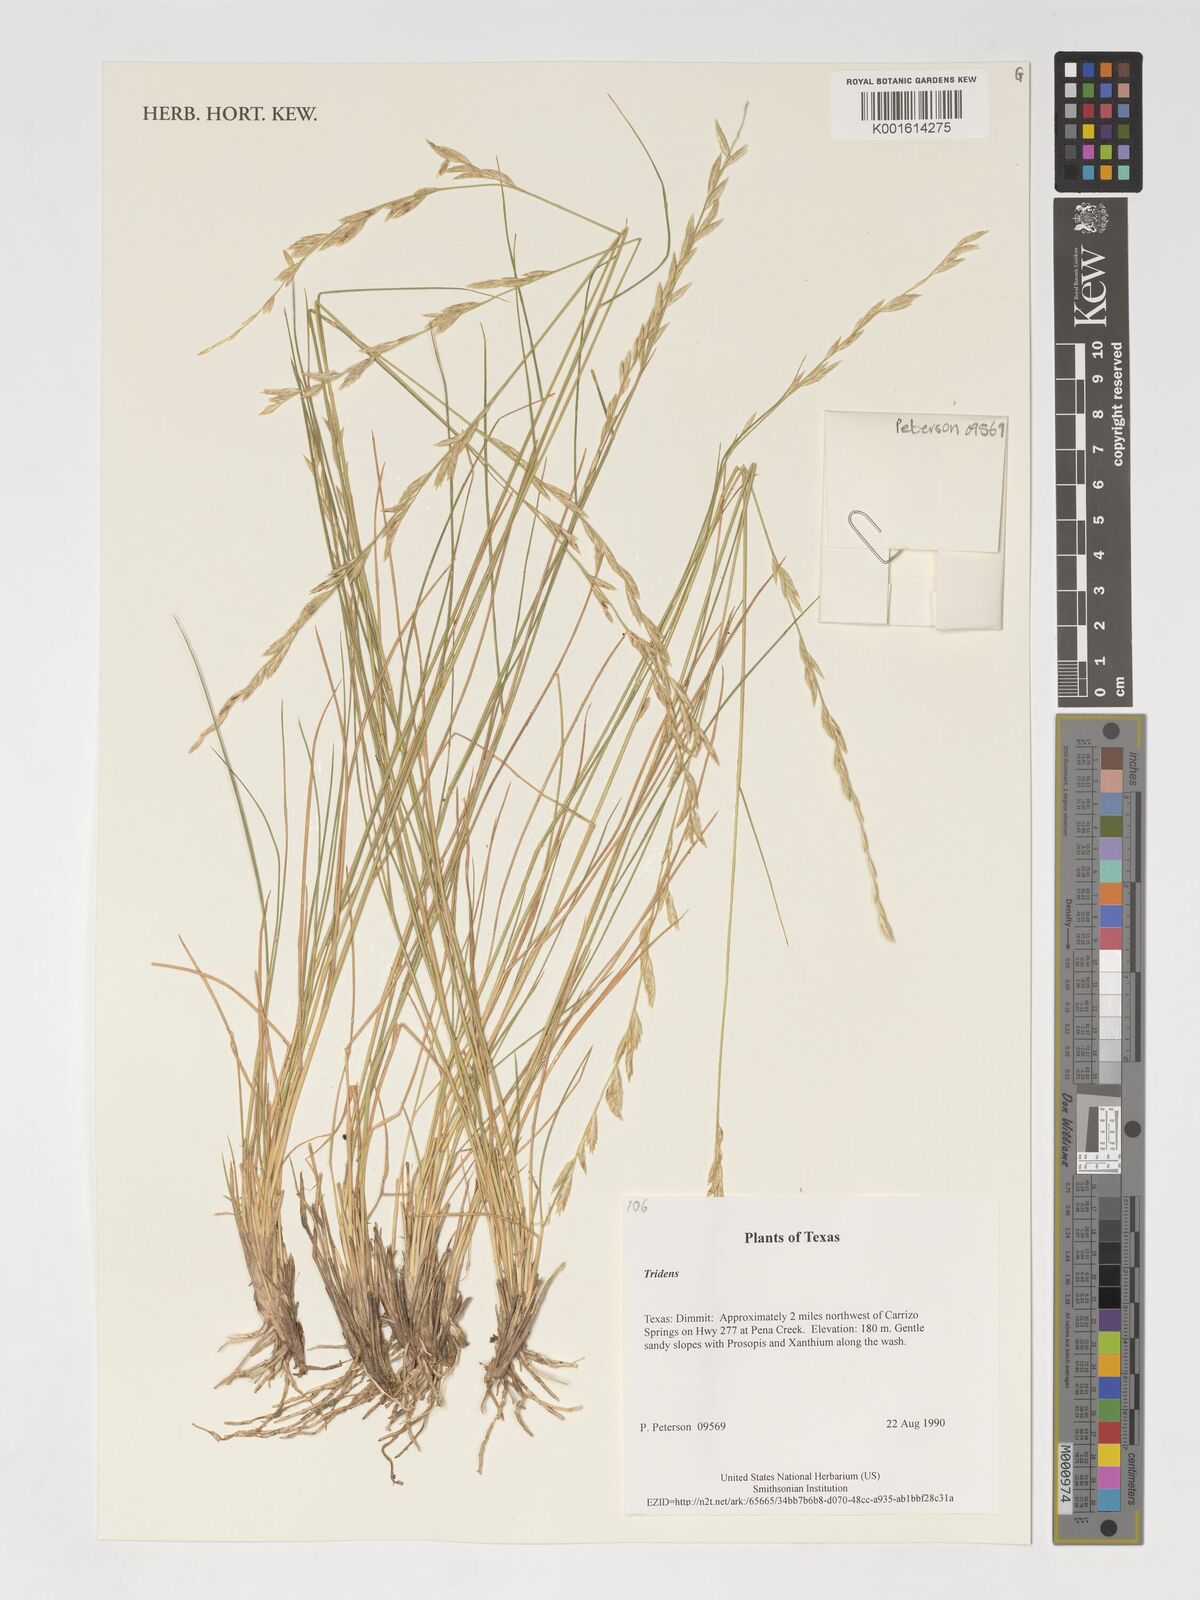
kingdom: Plantae
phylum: Tracheophyta
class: Liliopsida
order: Poales
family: Poaceae
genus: Tridens
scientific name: Tridens
